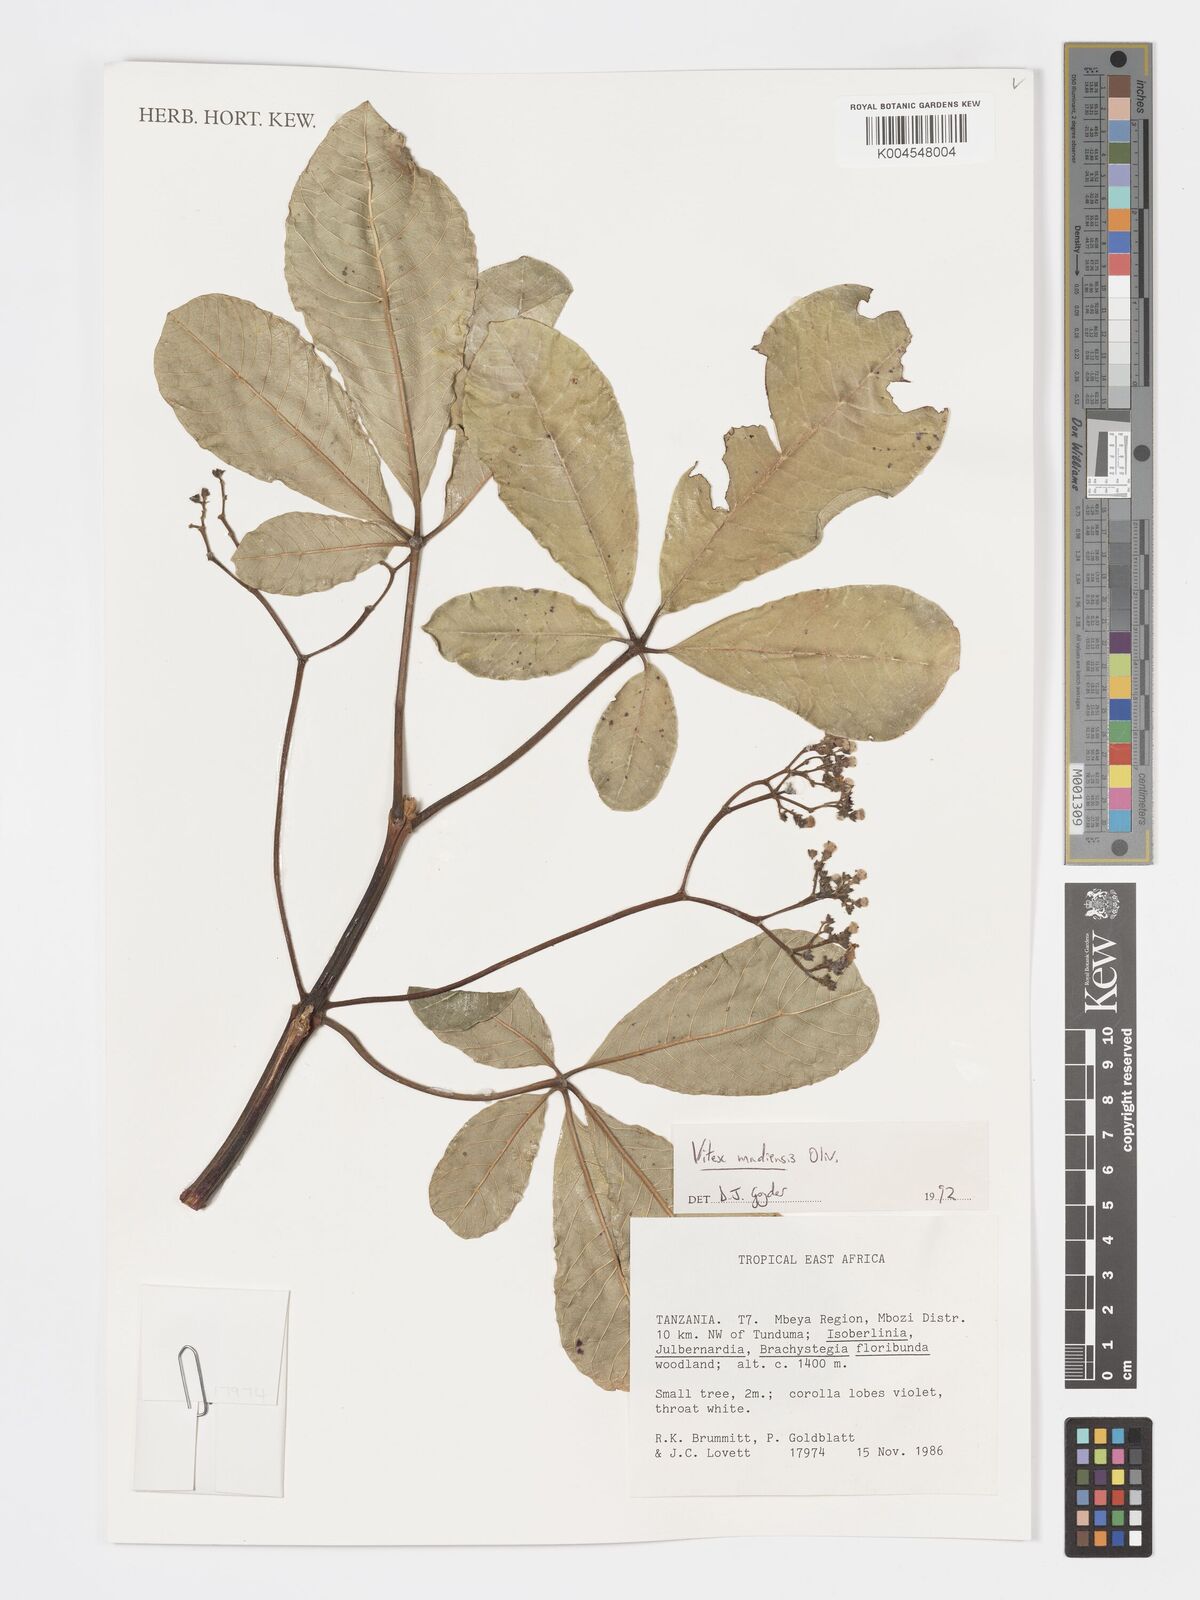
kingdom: Plantae
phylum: Tracheophyta
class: Magnoliopsida
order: Lamiales
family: Lamiaceae
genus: Vitex
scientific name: Vitex madiensis
